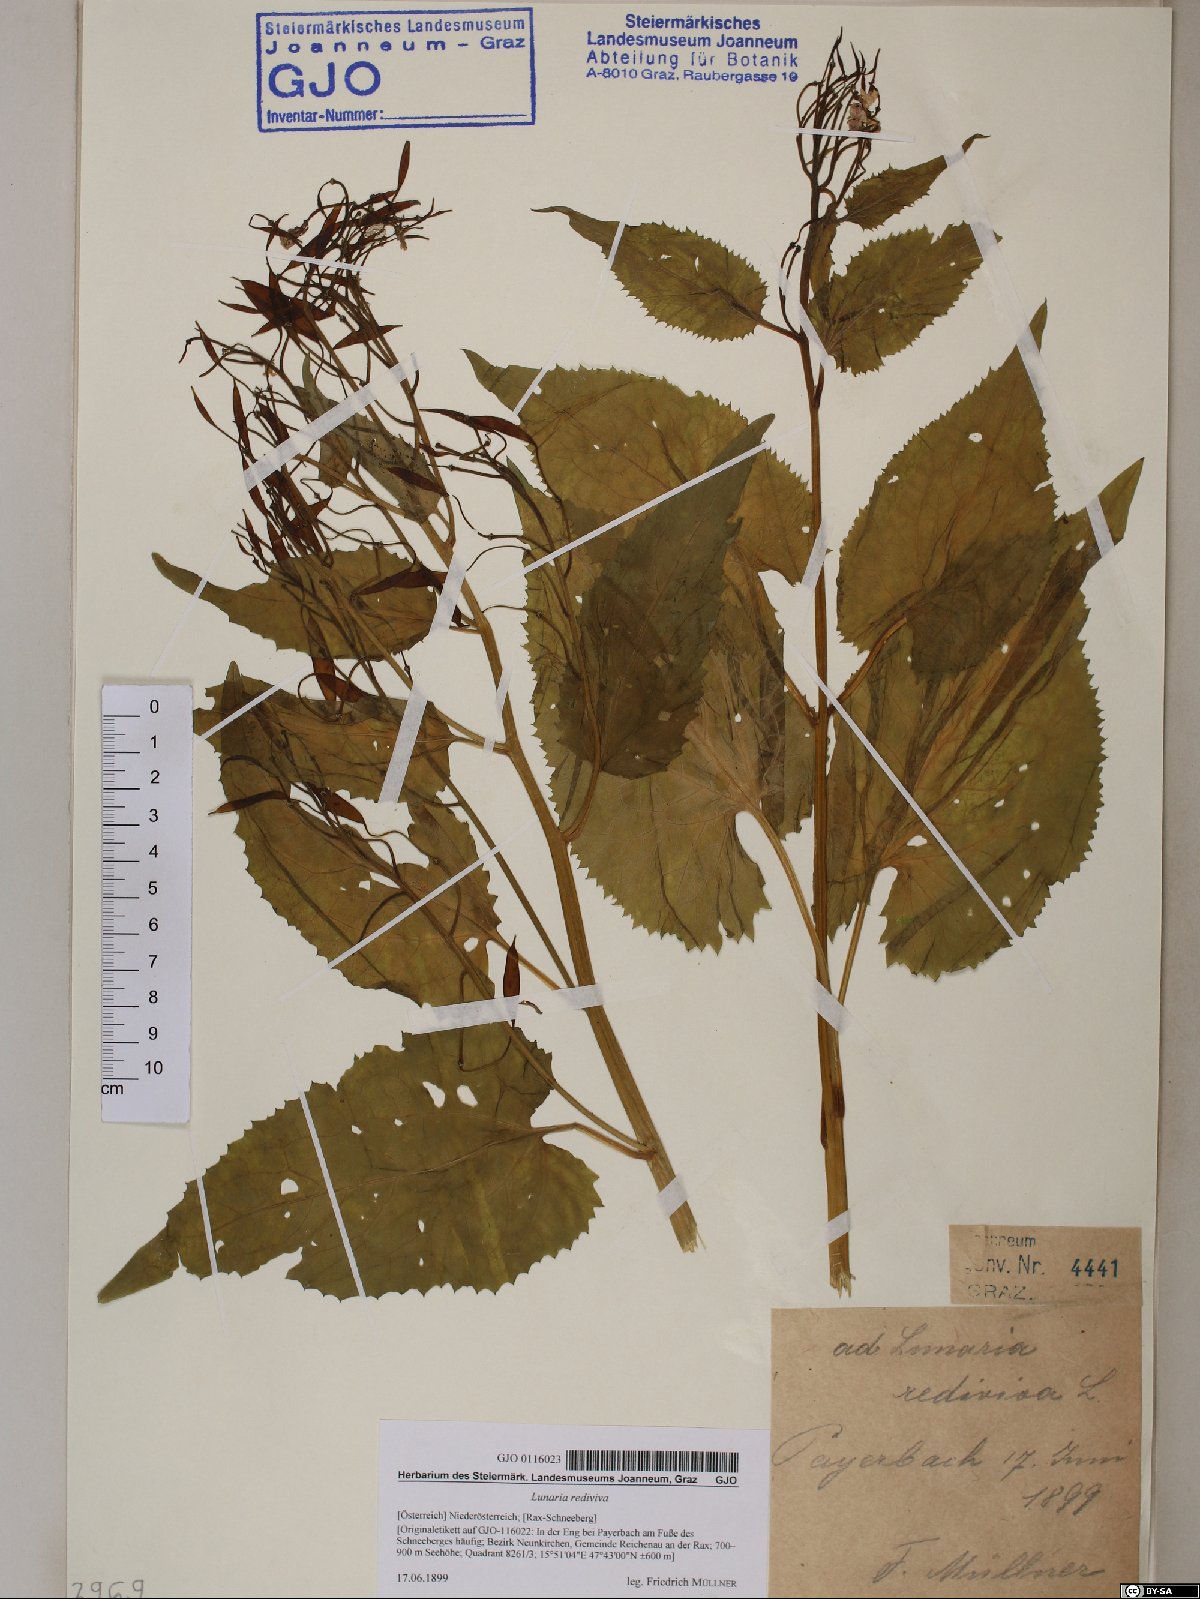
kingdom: Plantae
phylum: Tracheophyta
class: Magnoliopsida
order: Brassicales
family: Brassicaceae
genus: Lunaria
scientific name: Lunaria rediviva
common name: Perennial honesty
